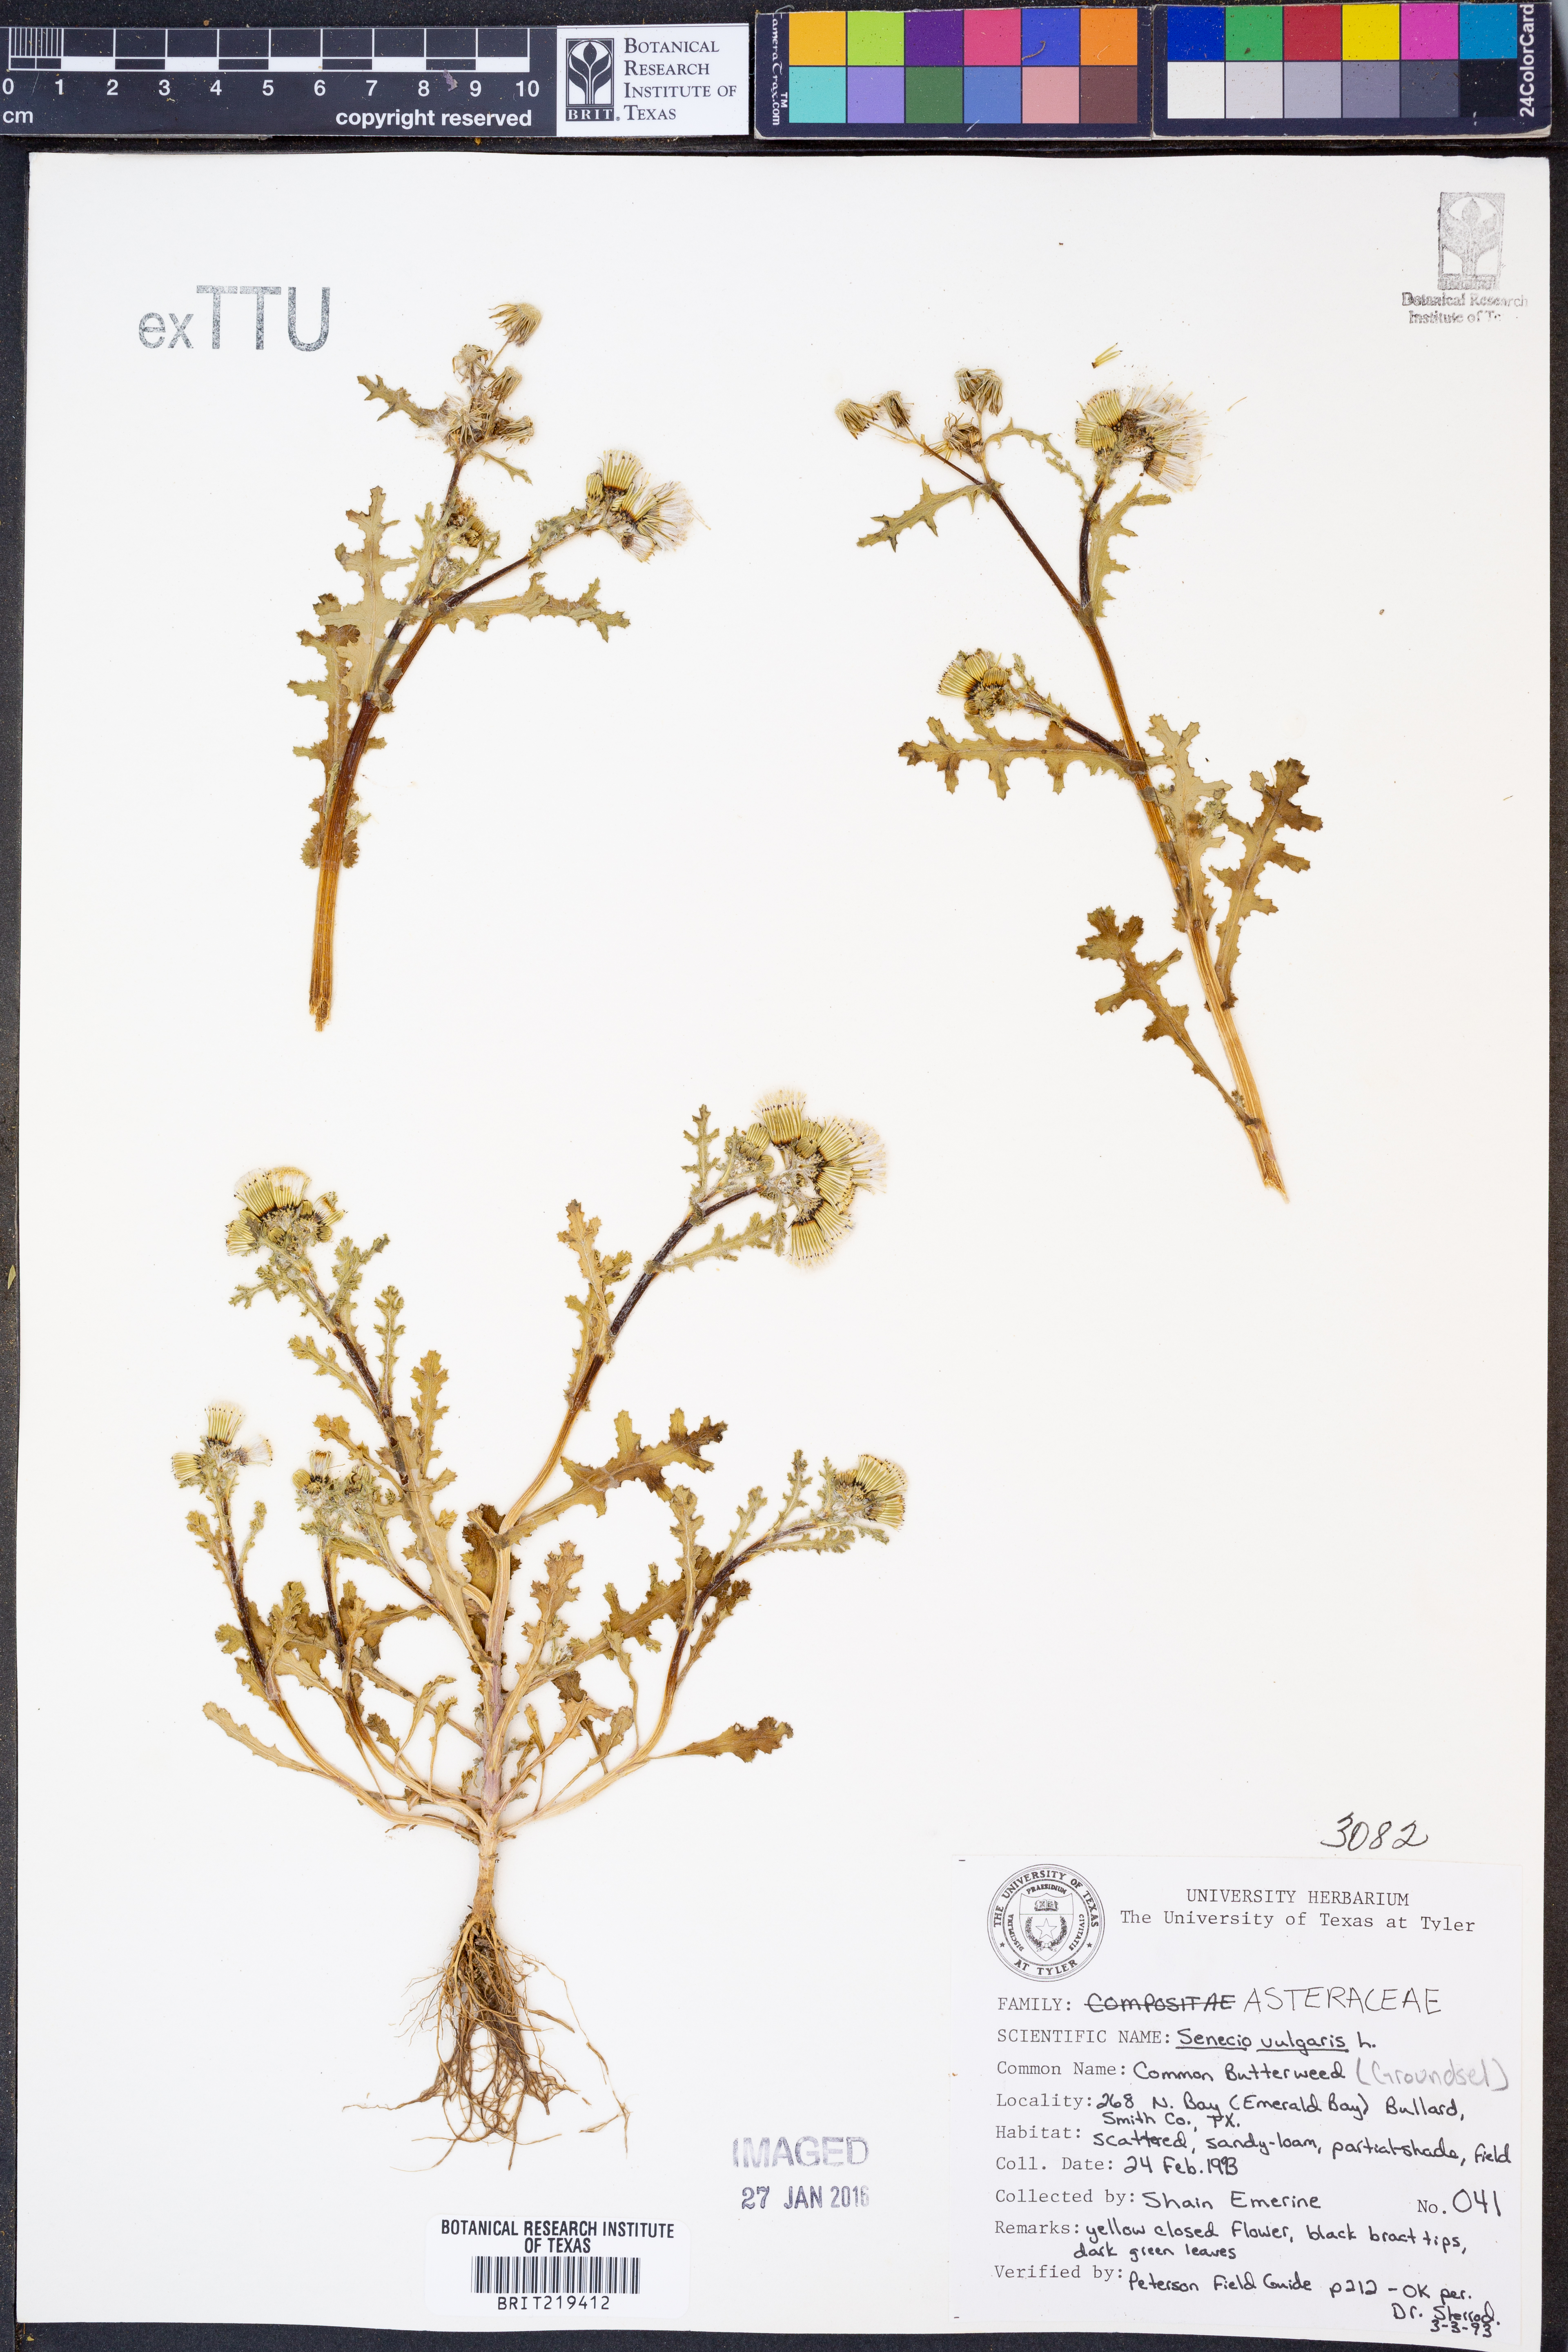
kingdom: Plantae
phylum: Tracheophyta
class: Magnoliopsida
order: Asterales
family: Asteraceae
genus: Senecio
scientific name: Senecio vulgaris
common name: Old-man-in-the-spring
